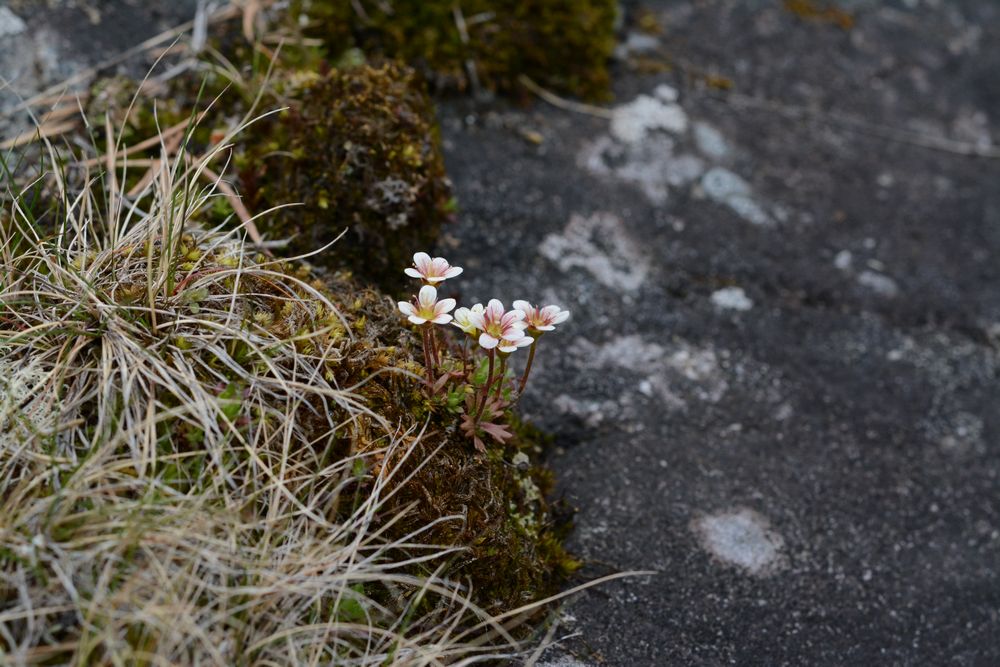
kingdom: Plantae
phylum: Tracheophyta
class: Magnoliopsida
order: Saxifragales
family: Saxifragaceae
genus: Saxifraga
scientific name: Saxifraga cespitosa
